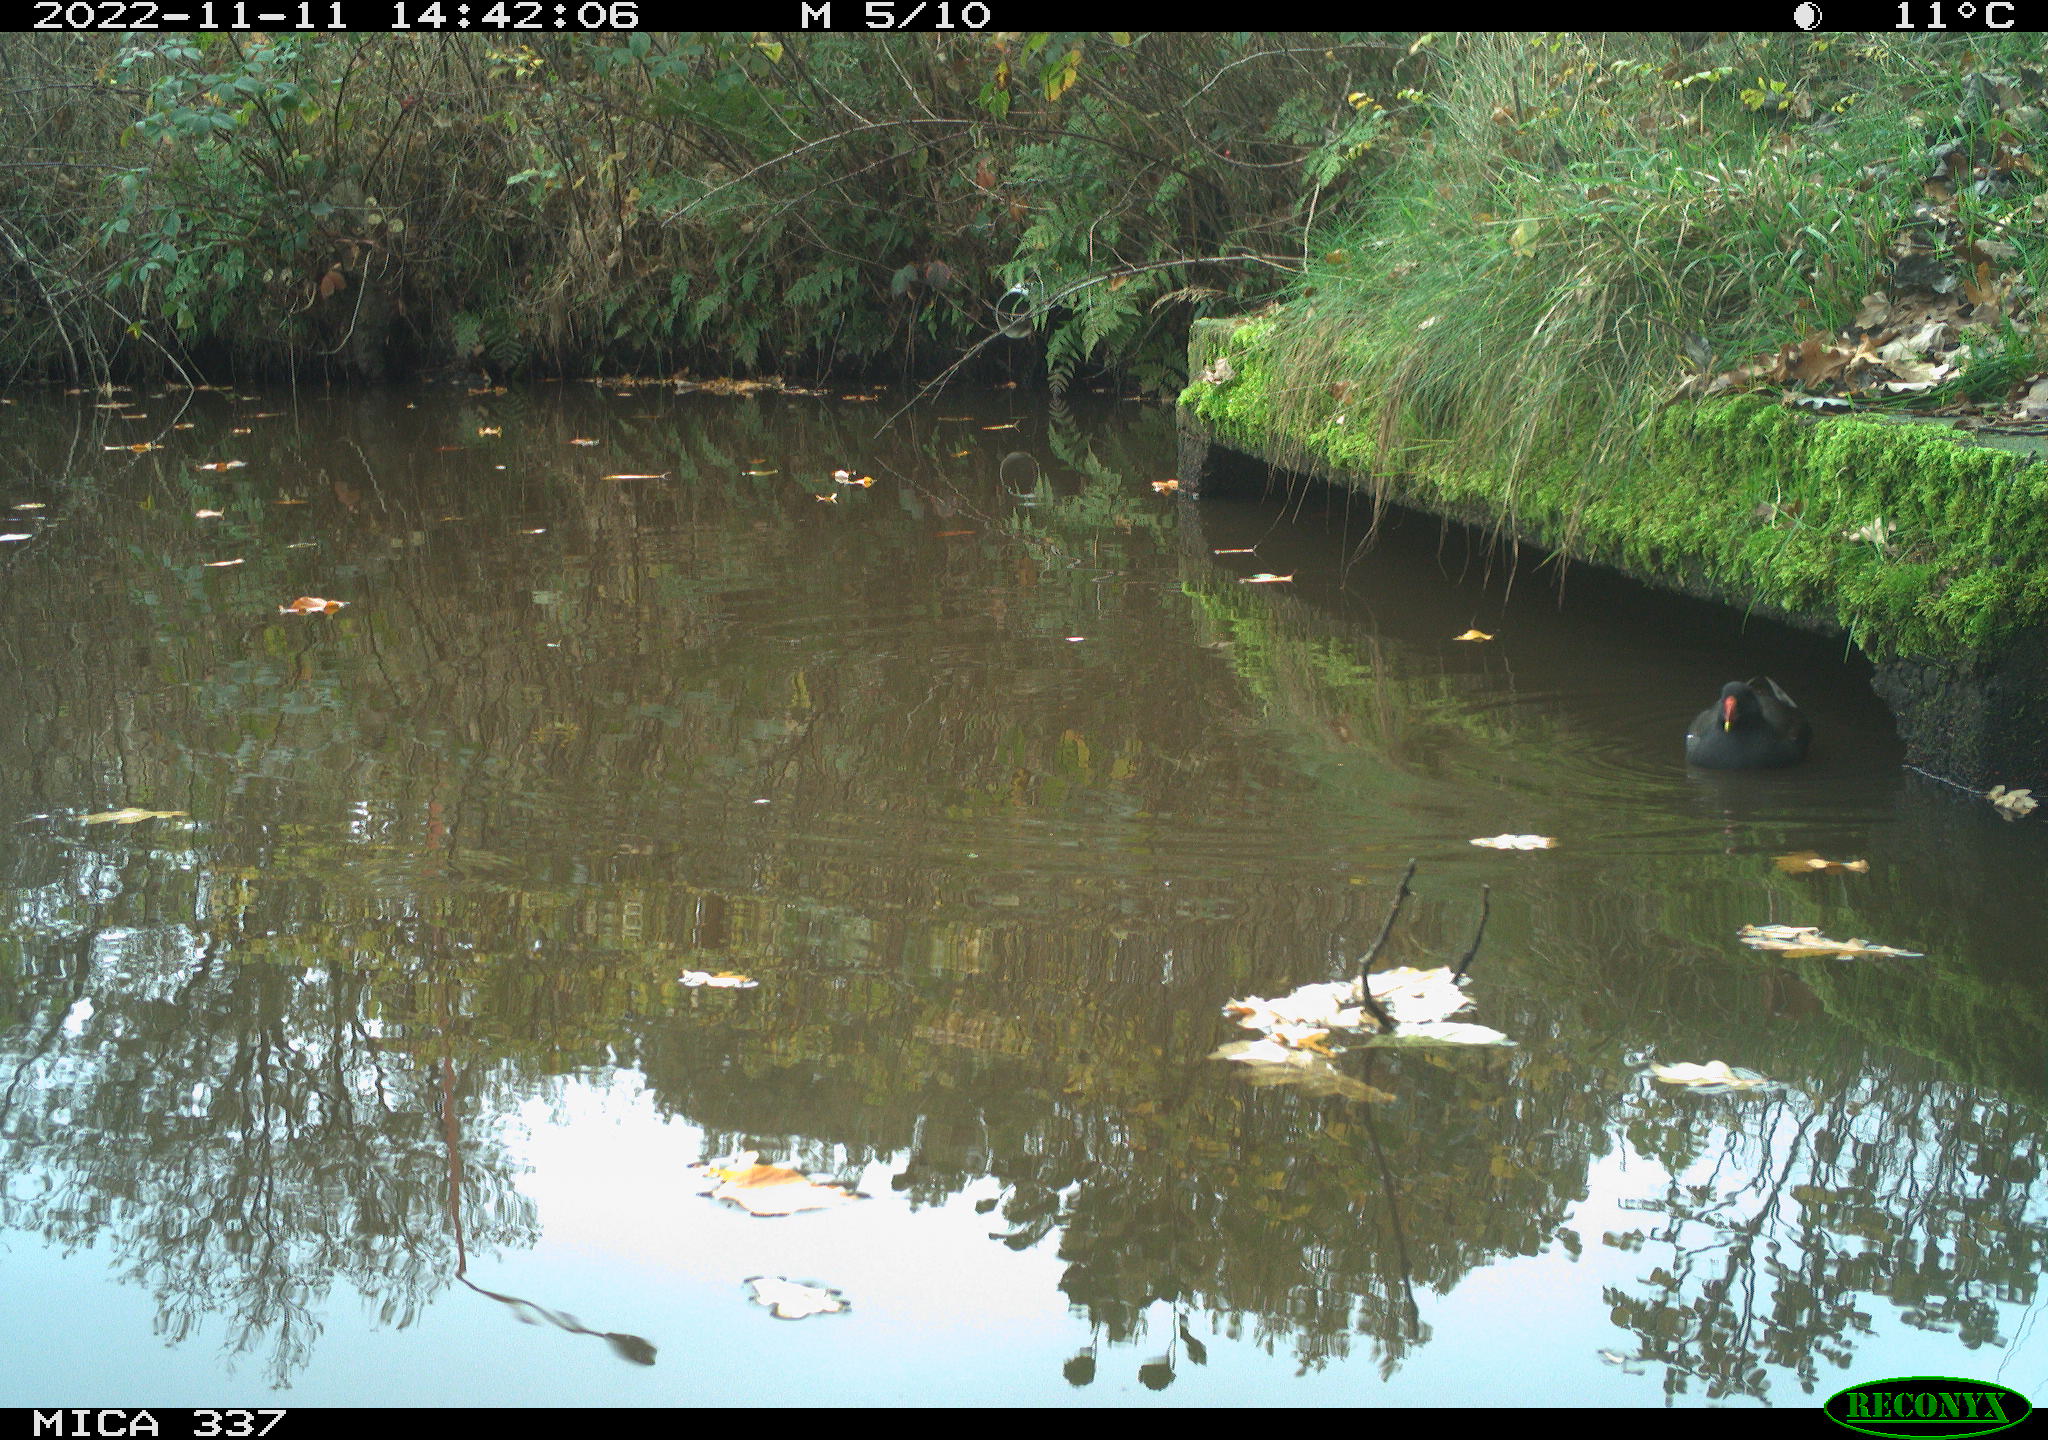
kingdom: Animalia
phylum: Chordata
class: Aves
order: Gruiformes
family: Rallidae
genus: Gallinula
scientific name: Gallinula chloropus
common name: Common moorhen
